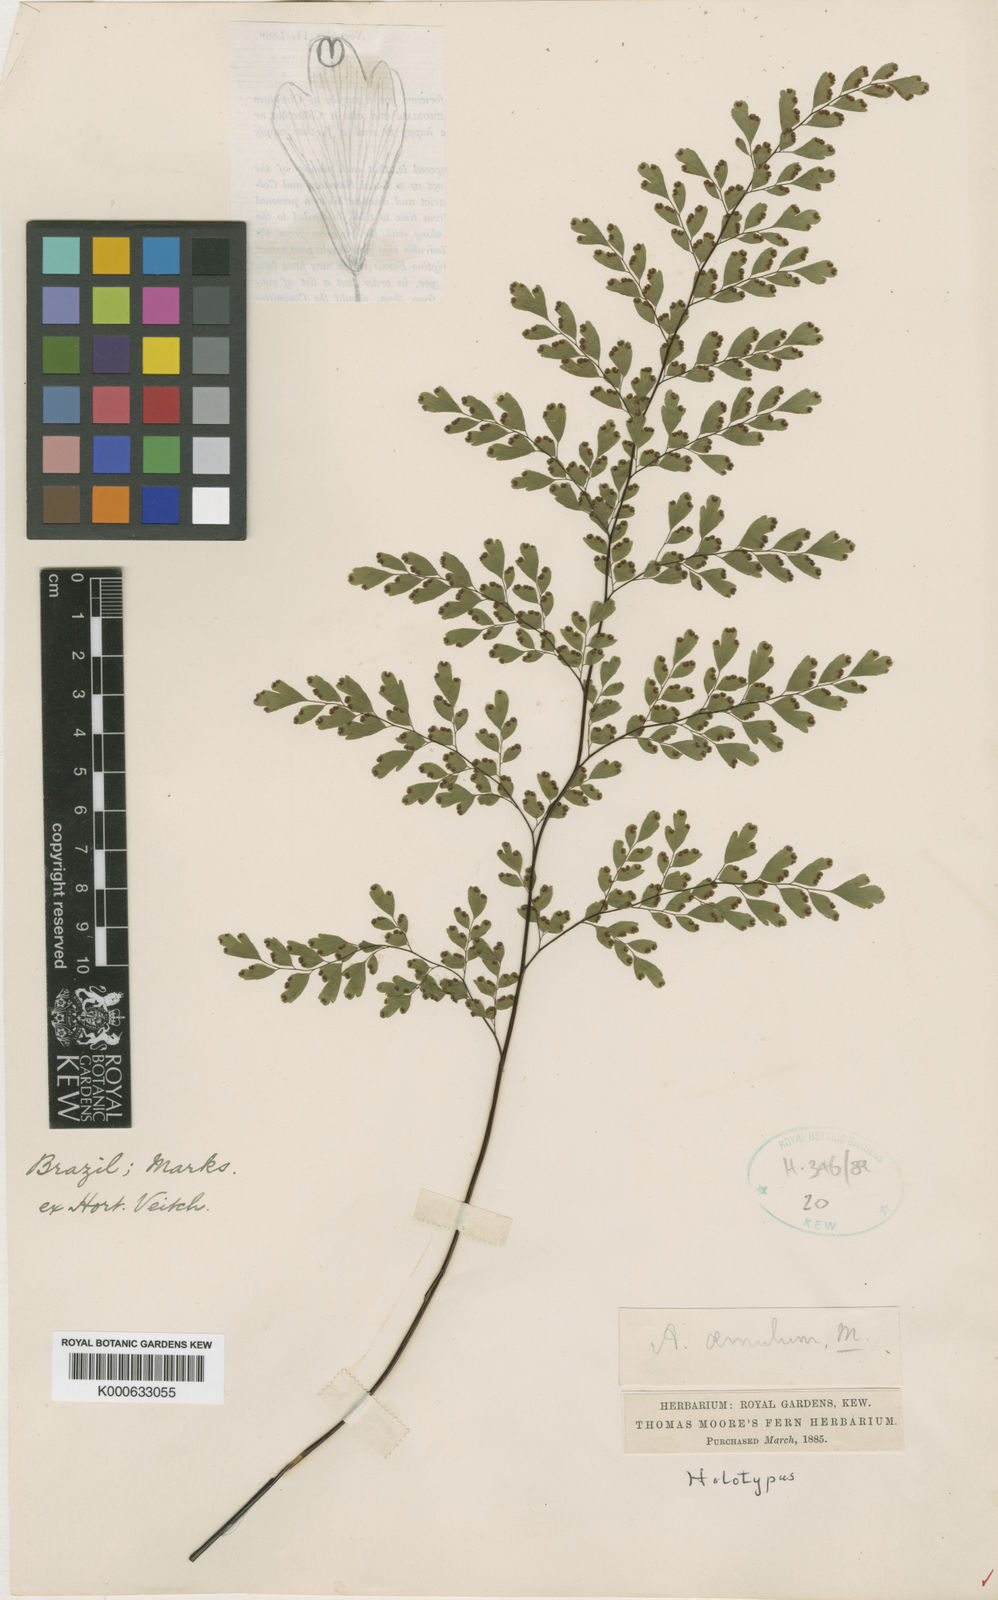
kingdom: Plantae
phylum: Tracheophyta
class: Polypodiopsida
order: Polypodiales
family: Pteridaceae
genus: Adiantum
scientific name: Adiantum raddianum
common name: Delta maidenhair fern
